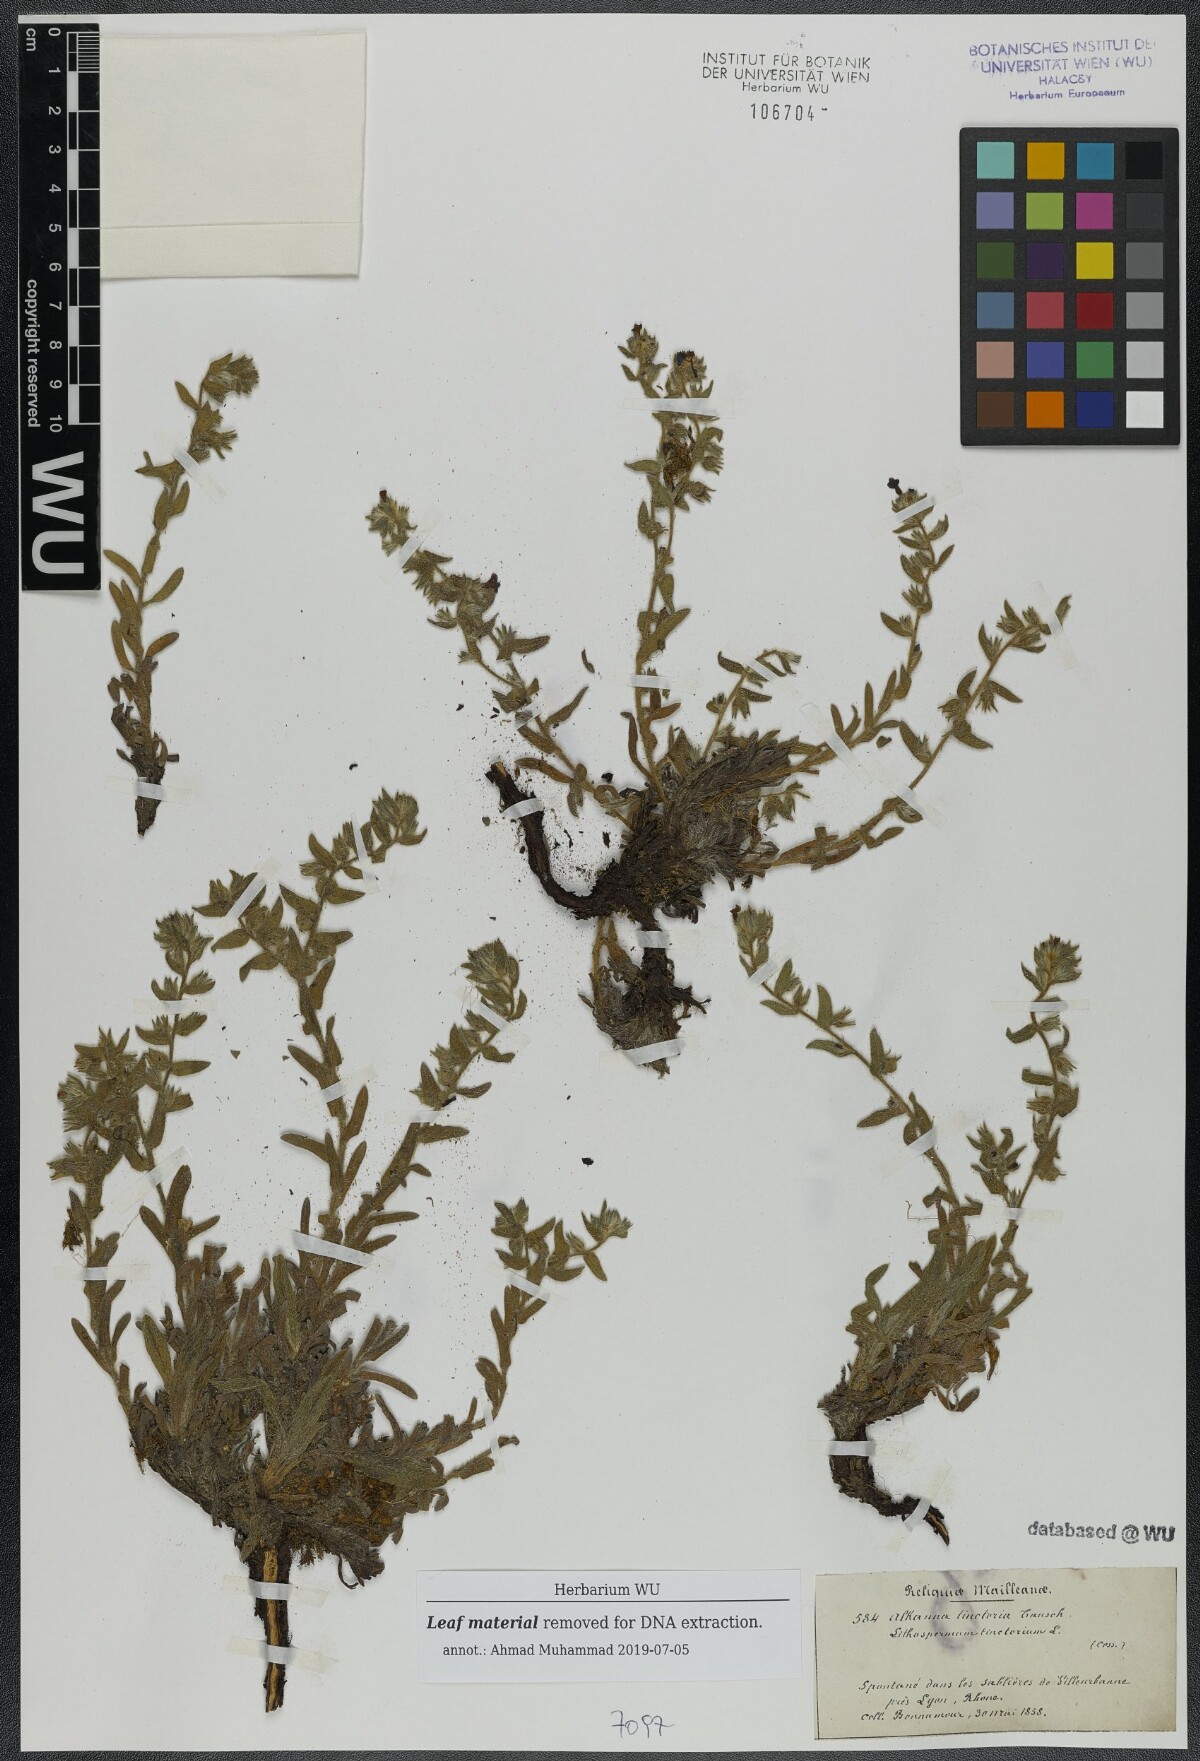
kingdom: Plantae
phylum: Tracheophyta
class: Magnoliopsida
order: Boraginales
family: Boraginaceae
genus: Alkanna
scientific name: Alkanna tinctoria
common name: Dyer's-alkanet
